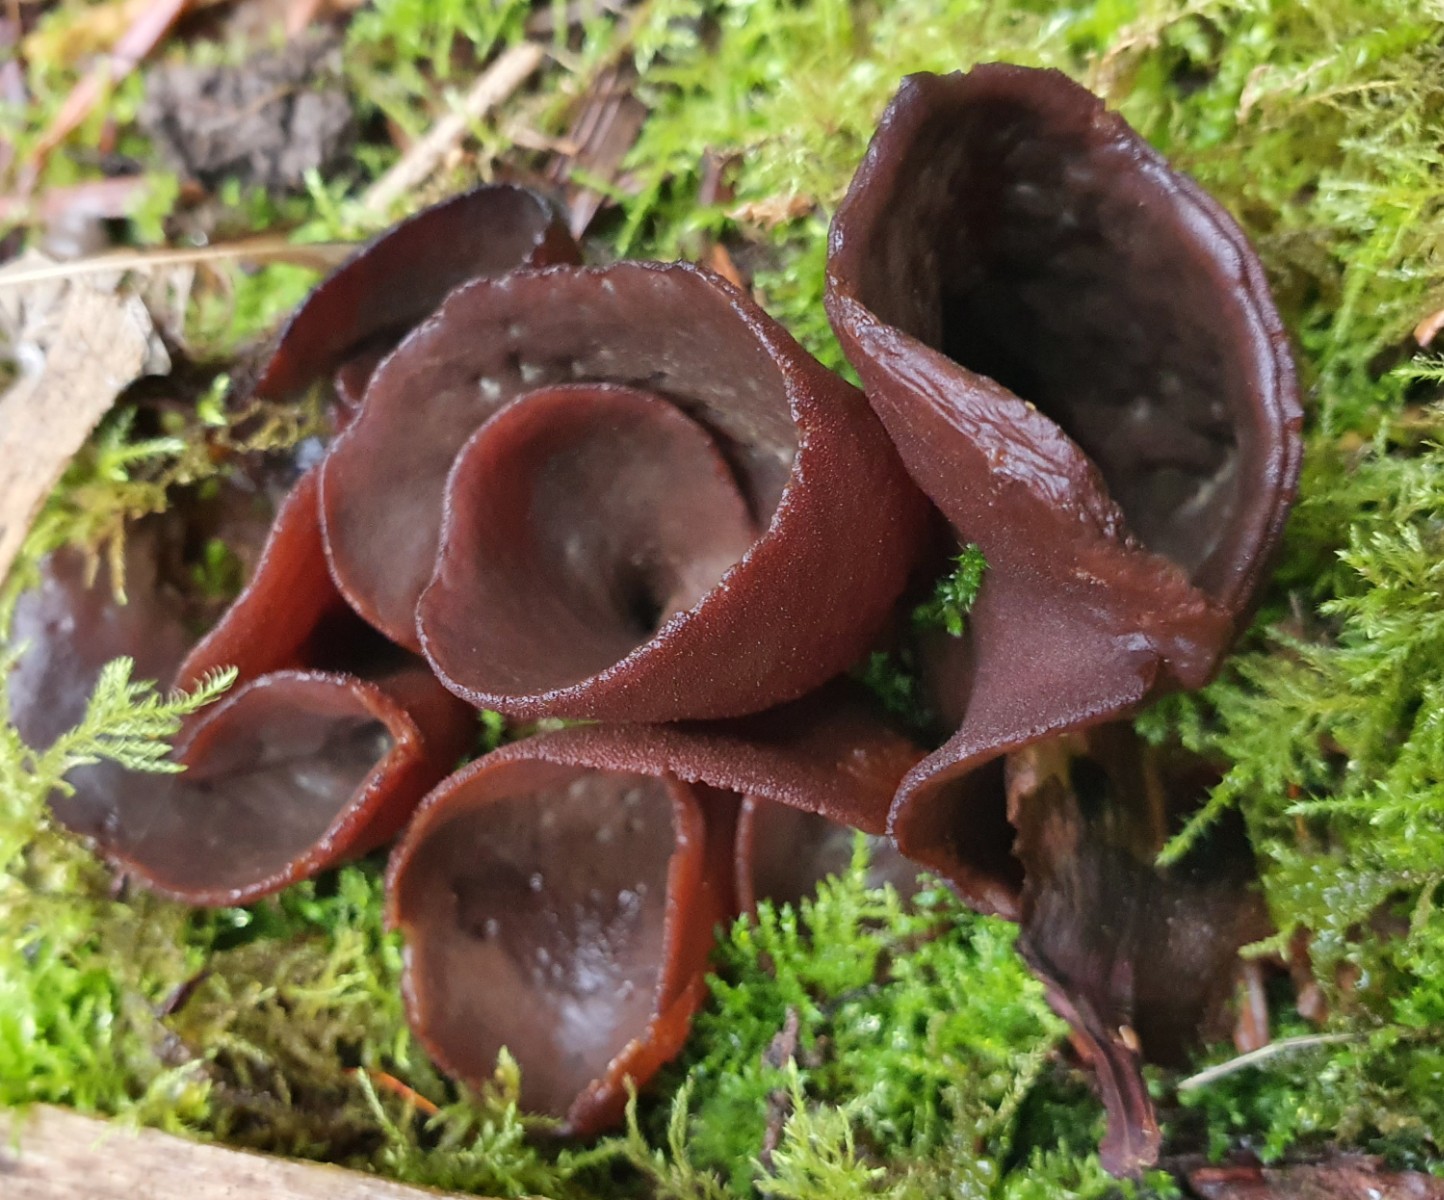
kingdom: Fungi
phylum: Ascomycota
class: Pezizomycetes
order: Pezizales
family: Otideaceae
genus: Otidea
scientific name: Otidea bufonia
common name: brun ørebæger
